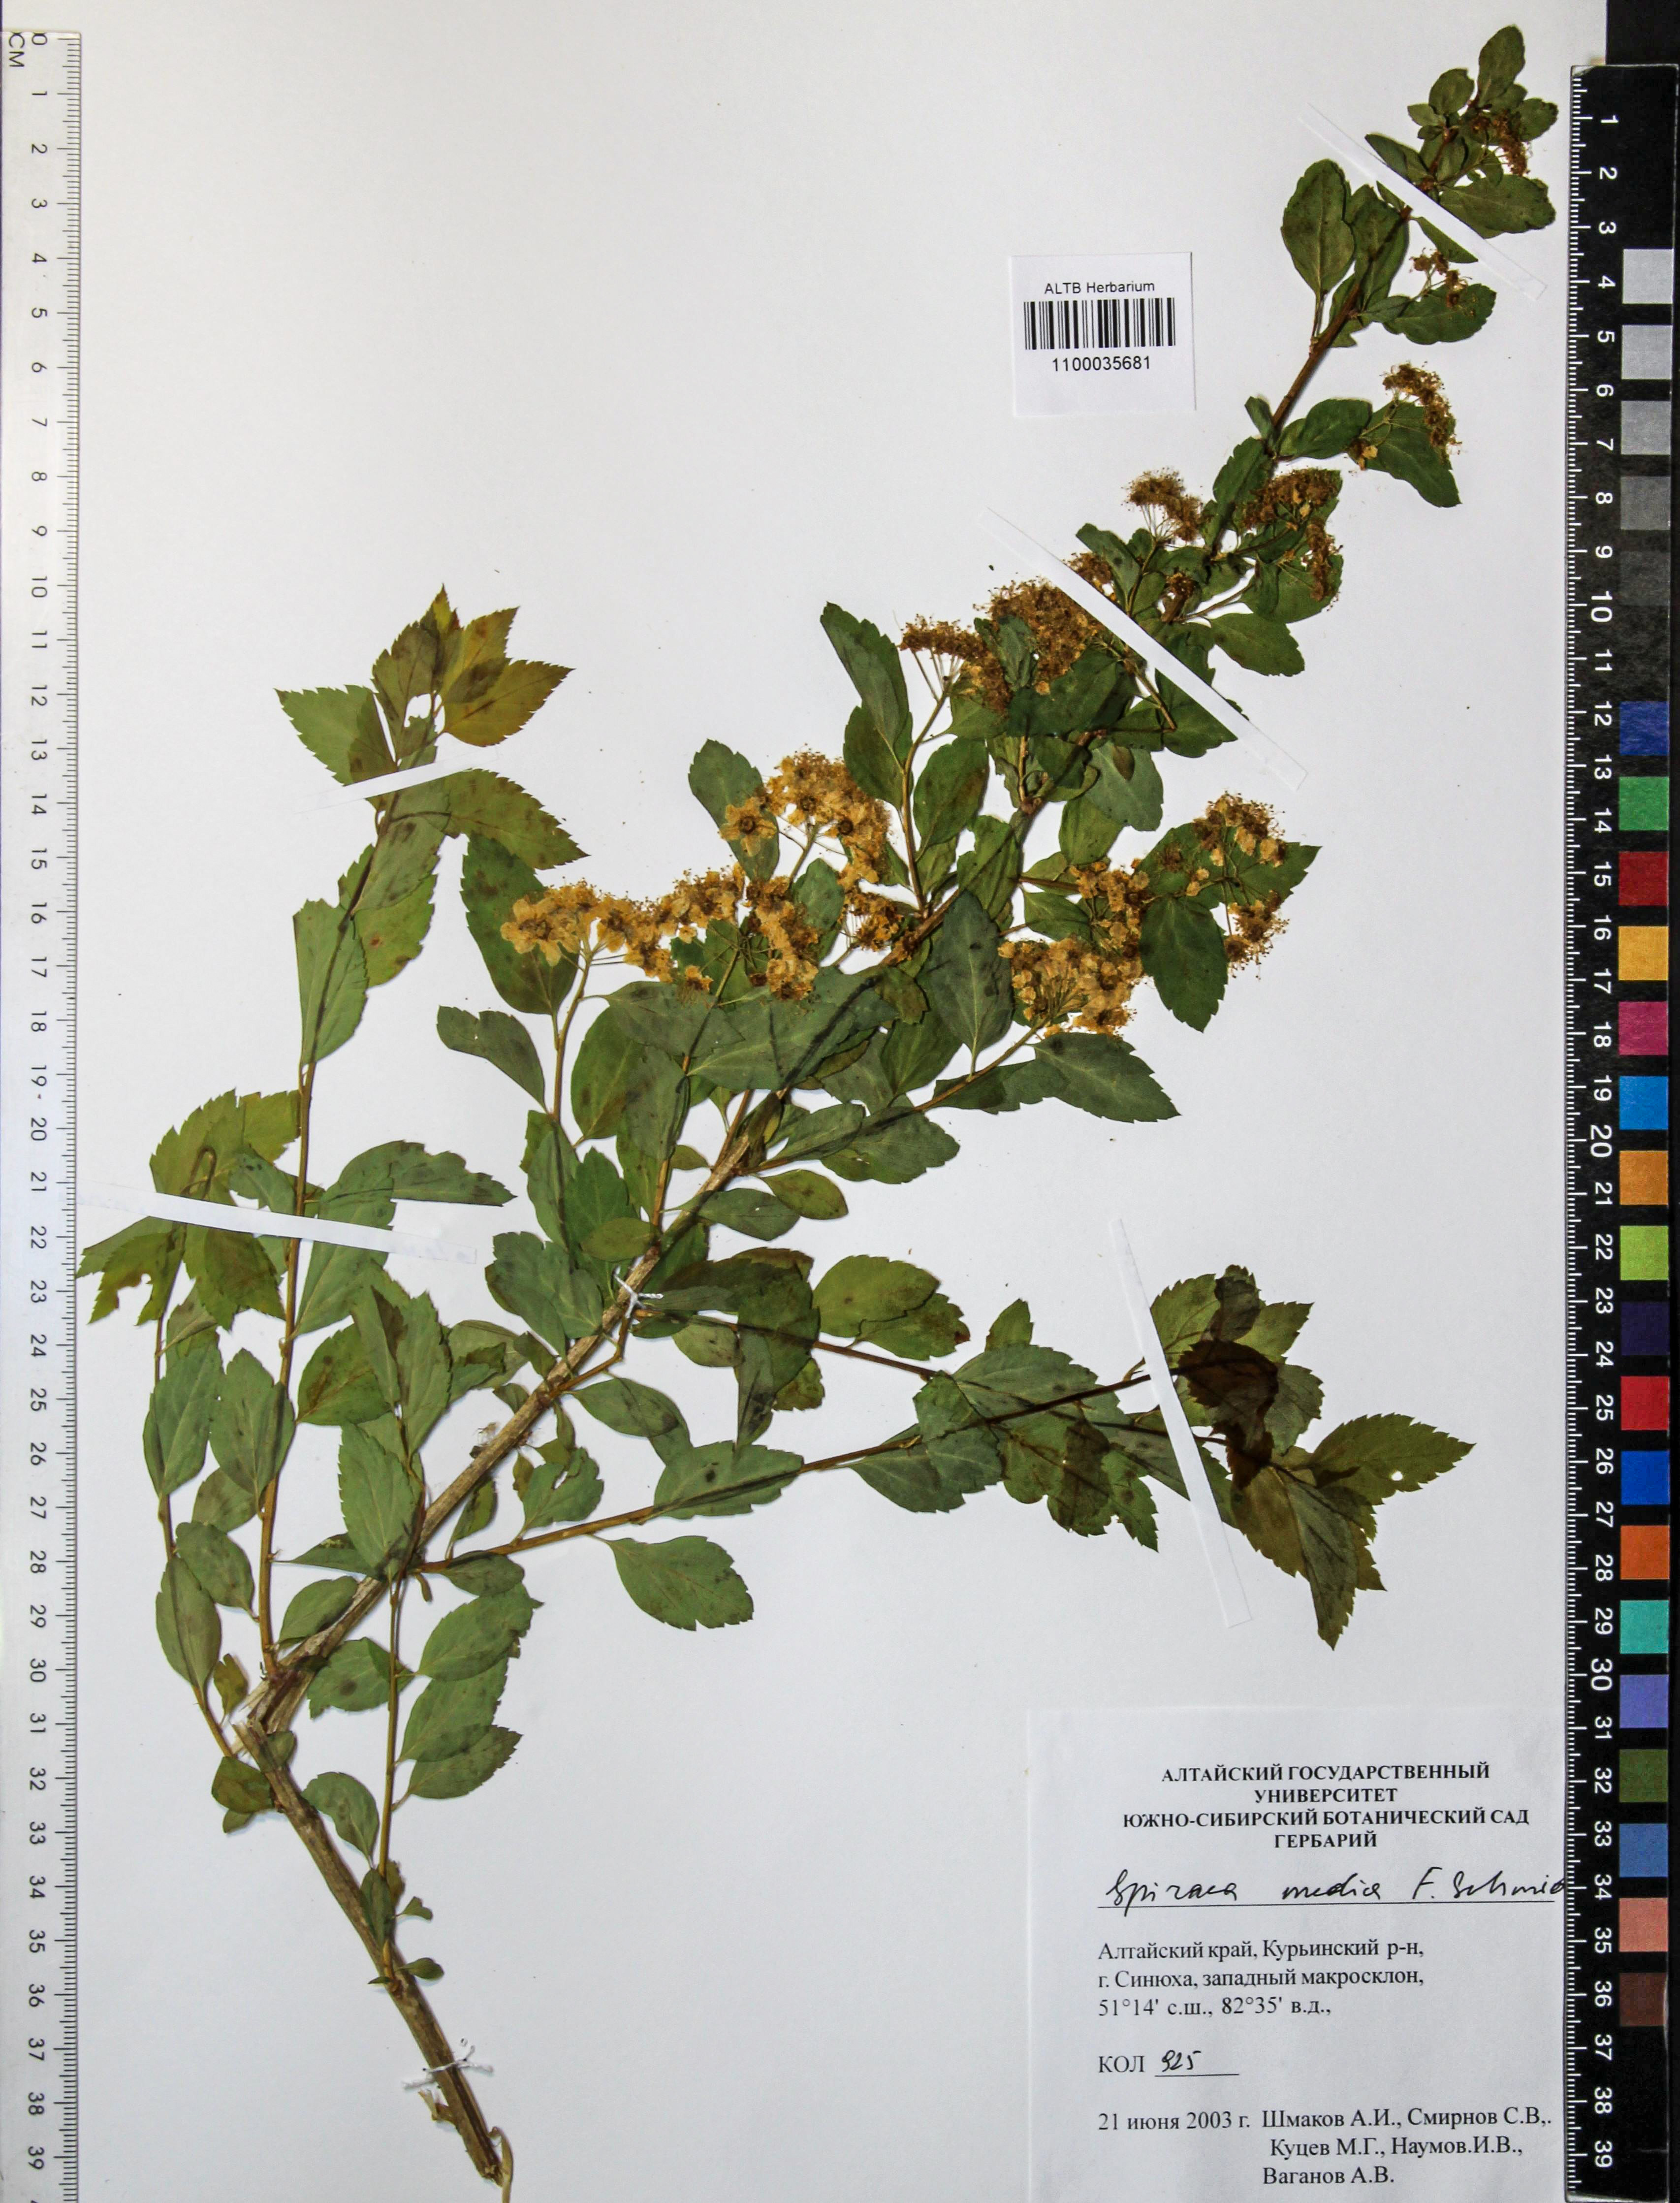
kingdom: Plantae
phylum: Tracheophyta
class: Magnoliopsida
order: Rosales
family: Rosaceae
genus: Spiraea
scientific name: Spiraea media
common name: Russian spiraea
